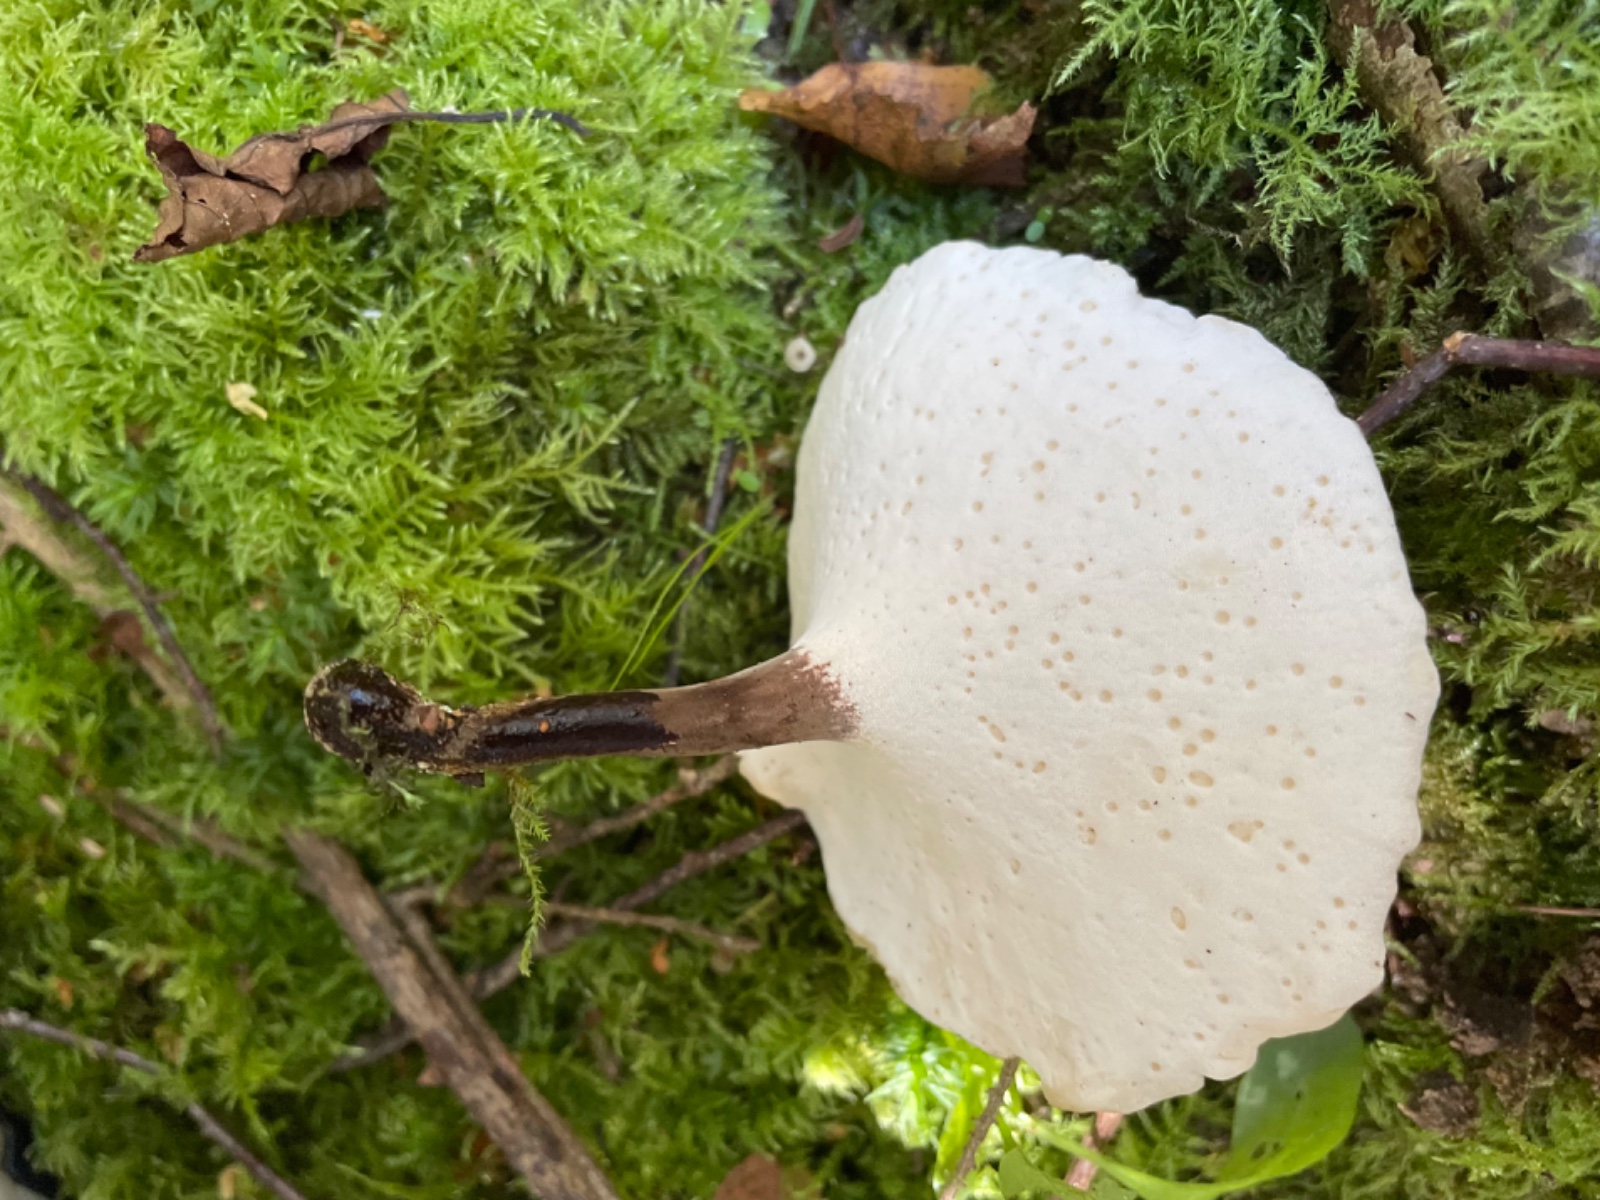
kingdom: Fungi
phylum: Basidiomycota
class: Agaricomycetes
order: Polyporales
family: Polyporaceae
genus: Picipes
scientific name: Picipes tubaeformis
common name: trompet-stilkporesvamp
